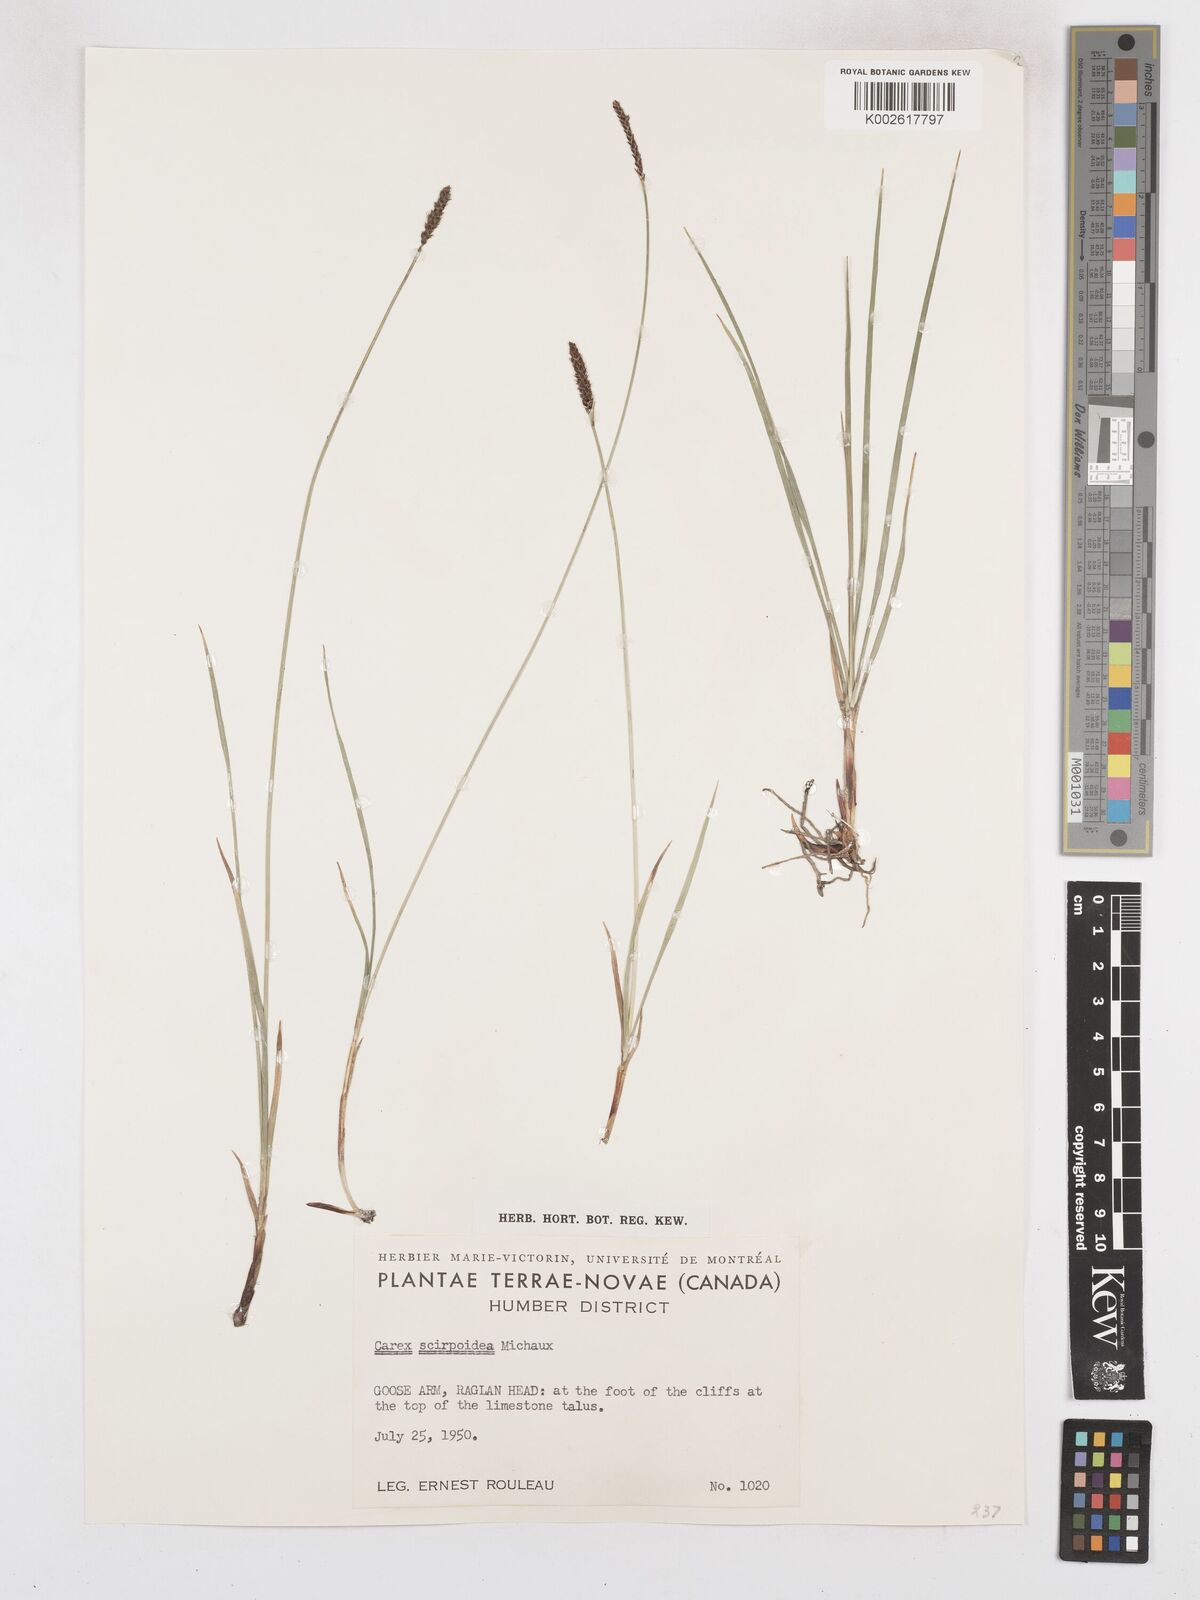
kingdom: Plantae
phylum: Tracheophyta
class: Liliopsida
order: Poales
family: Cyperaceae
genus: Carex
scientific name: Carex scirpoidea
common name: Canada single-spike sedge
